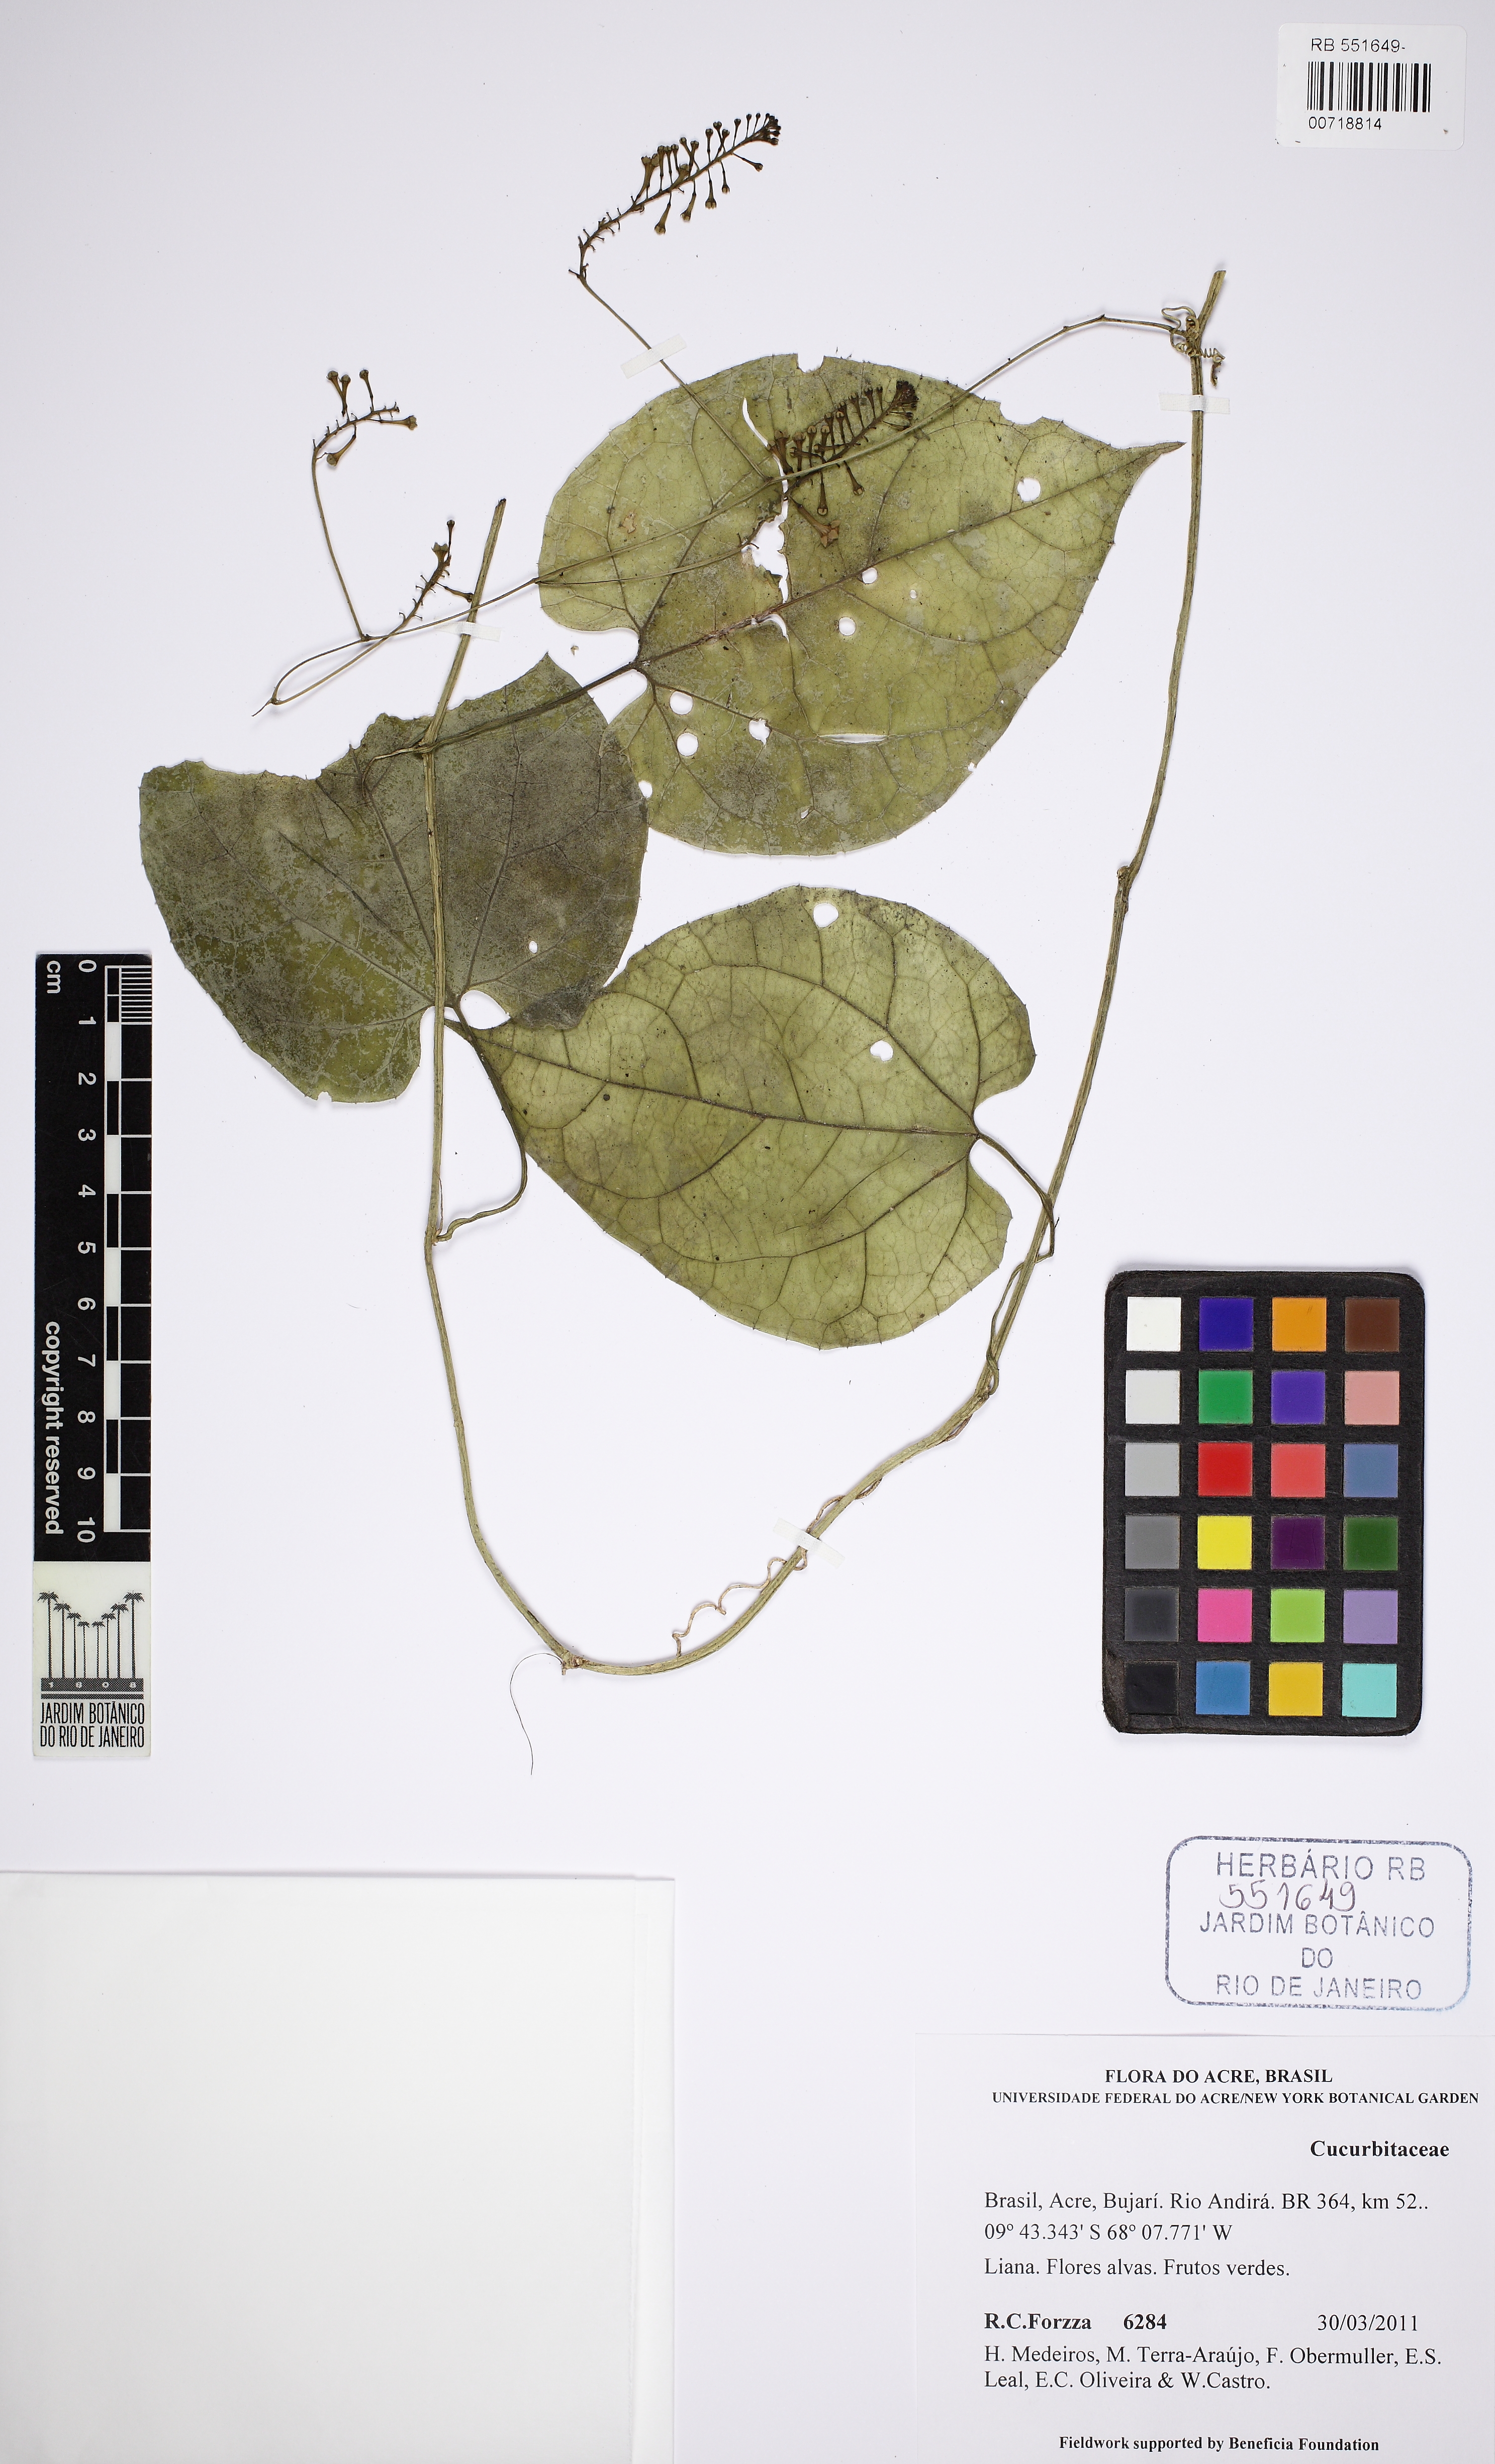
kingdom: Plantae
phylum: Tracheophyta
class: Magnoliopsida
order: Cucurbitales
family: Cucurbitaceae
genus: Helmontia
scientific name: Helmontia cardiophylla
